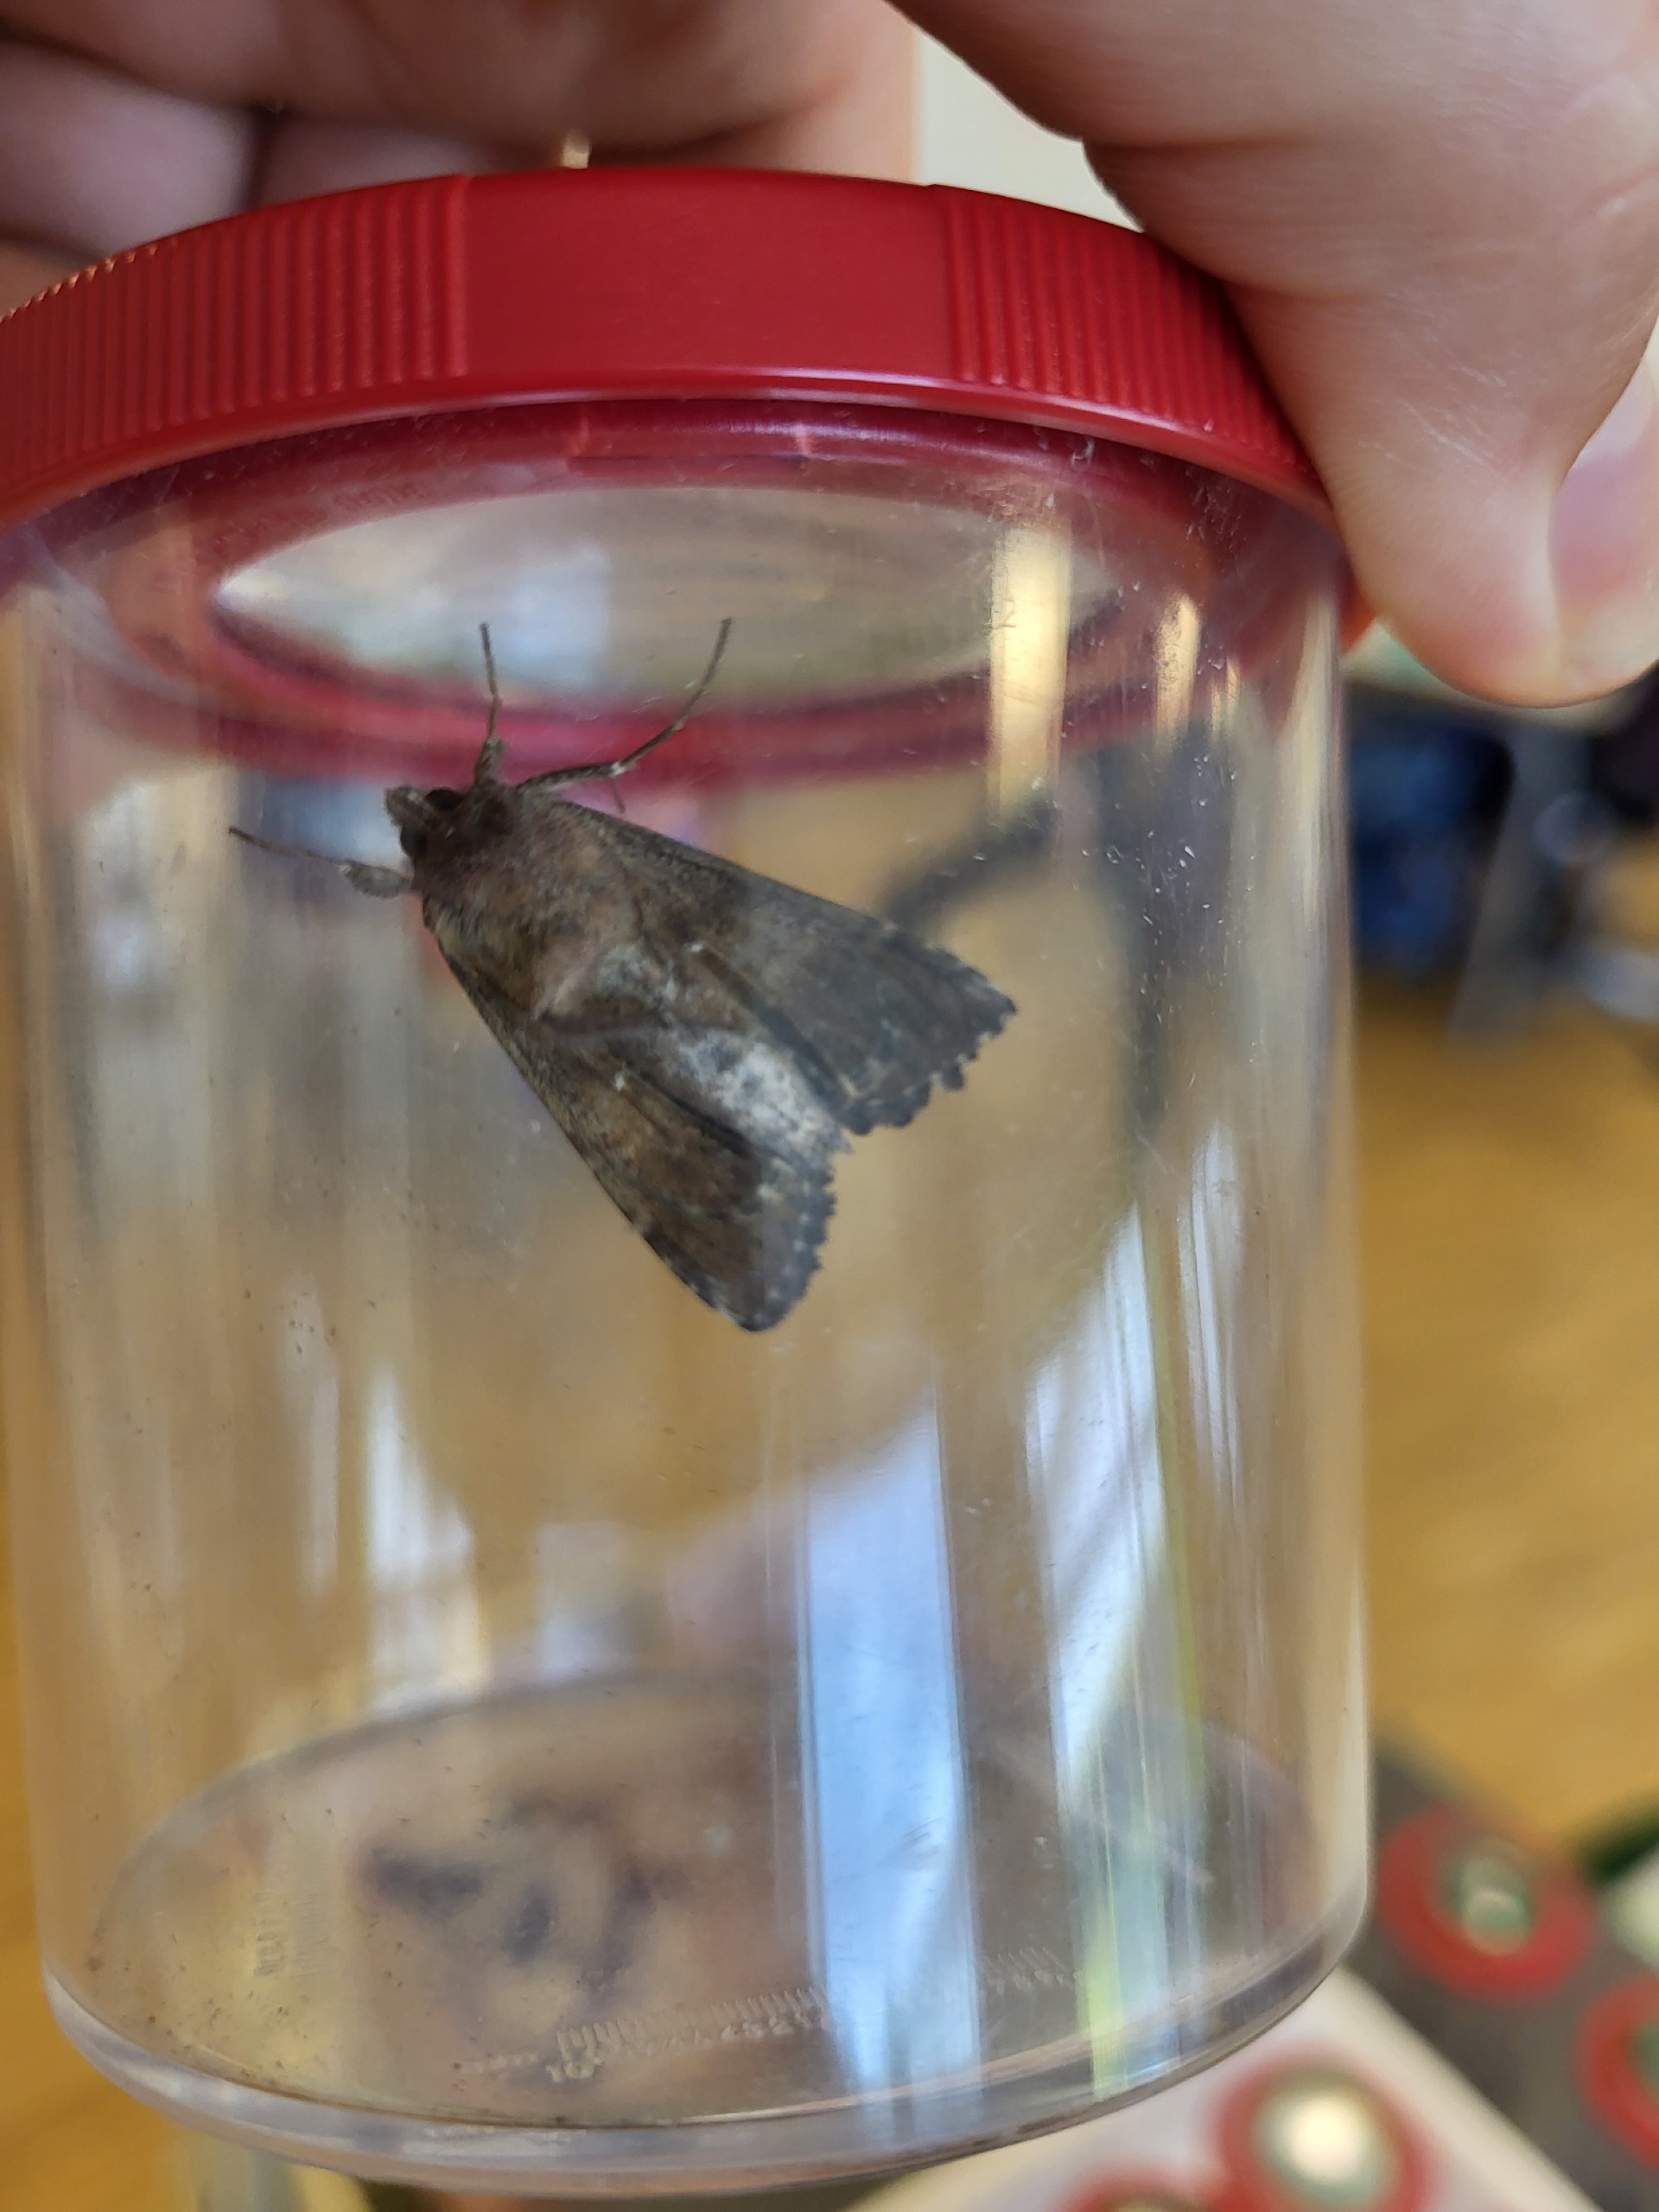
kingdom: Animalia
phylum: Arthropoda
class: Insecta
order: Lepidoptera
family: Noctuidae
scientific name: Noctuidae
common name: Ugler
